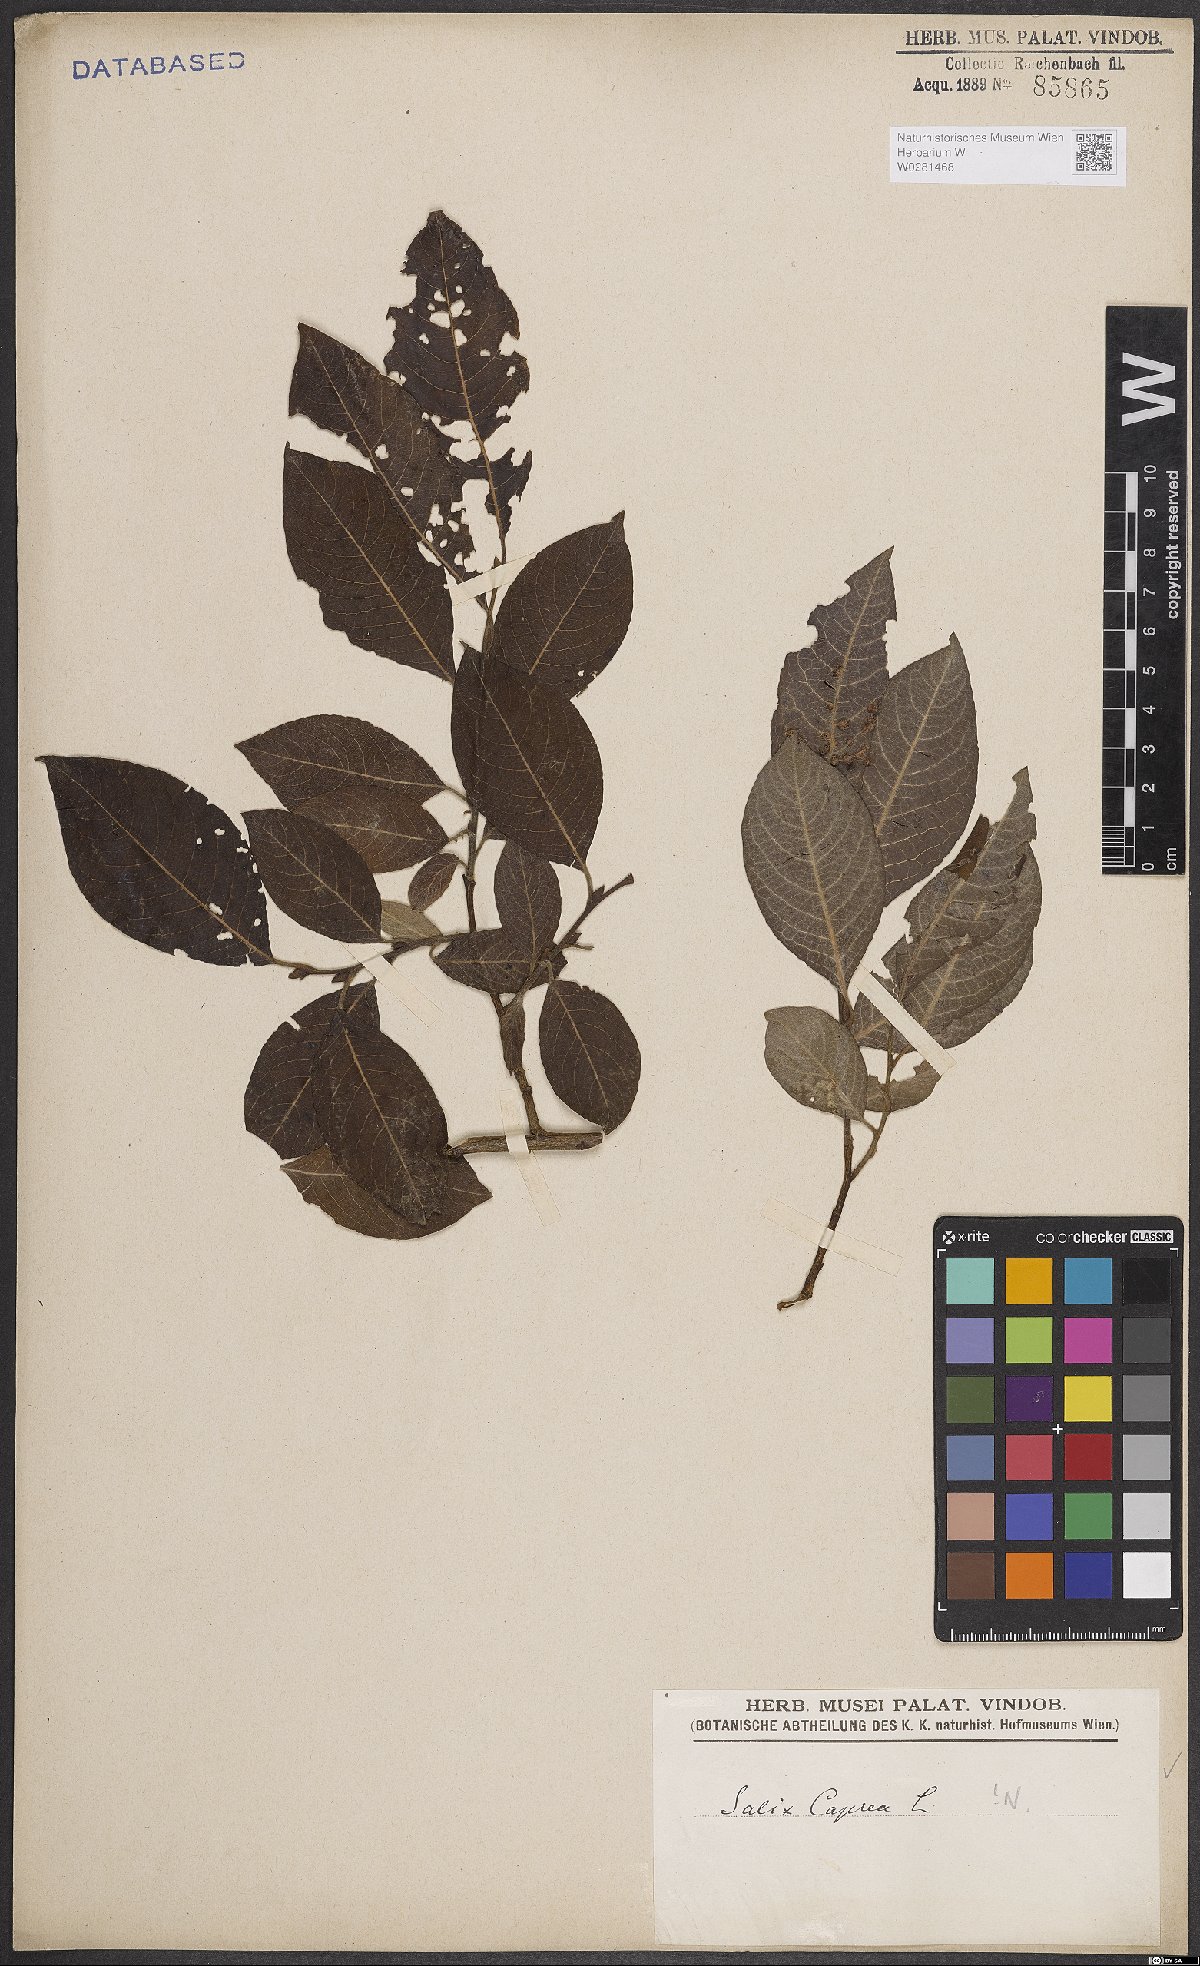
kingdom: Plantae
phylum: Tracheophyta
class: Magnoliopsida
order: Malpighiales
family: Salicaceae
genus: Salix
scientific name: Salix caprea
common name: Goat willow
